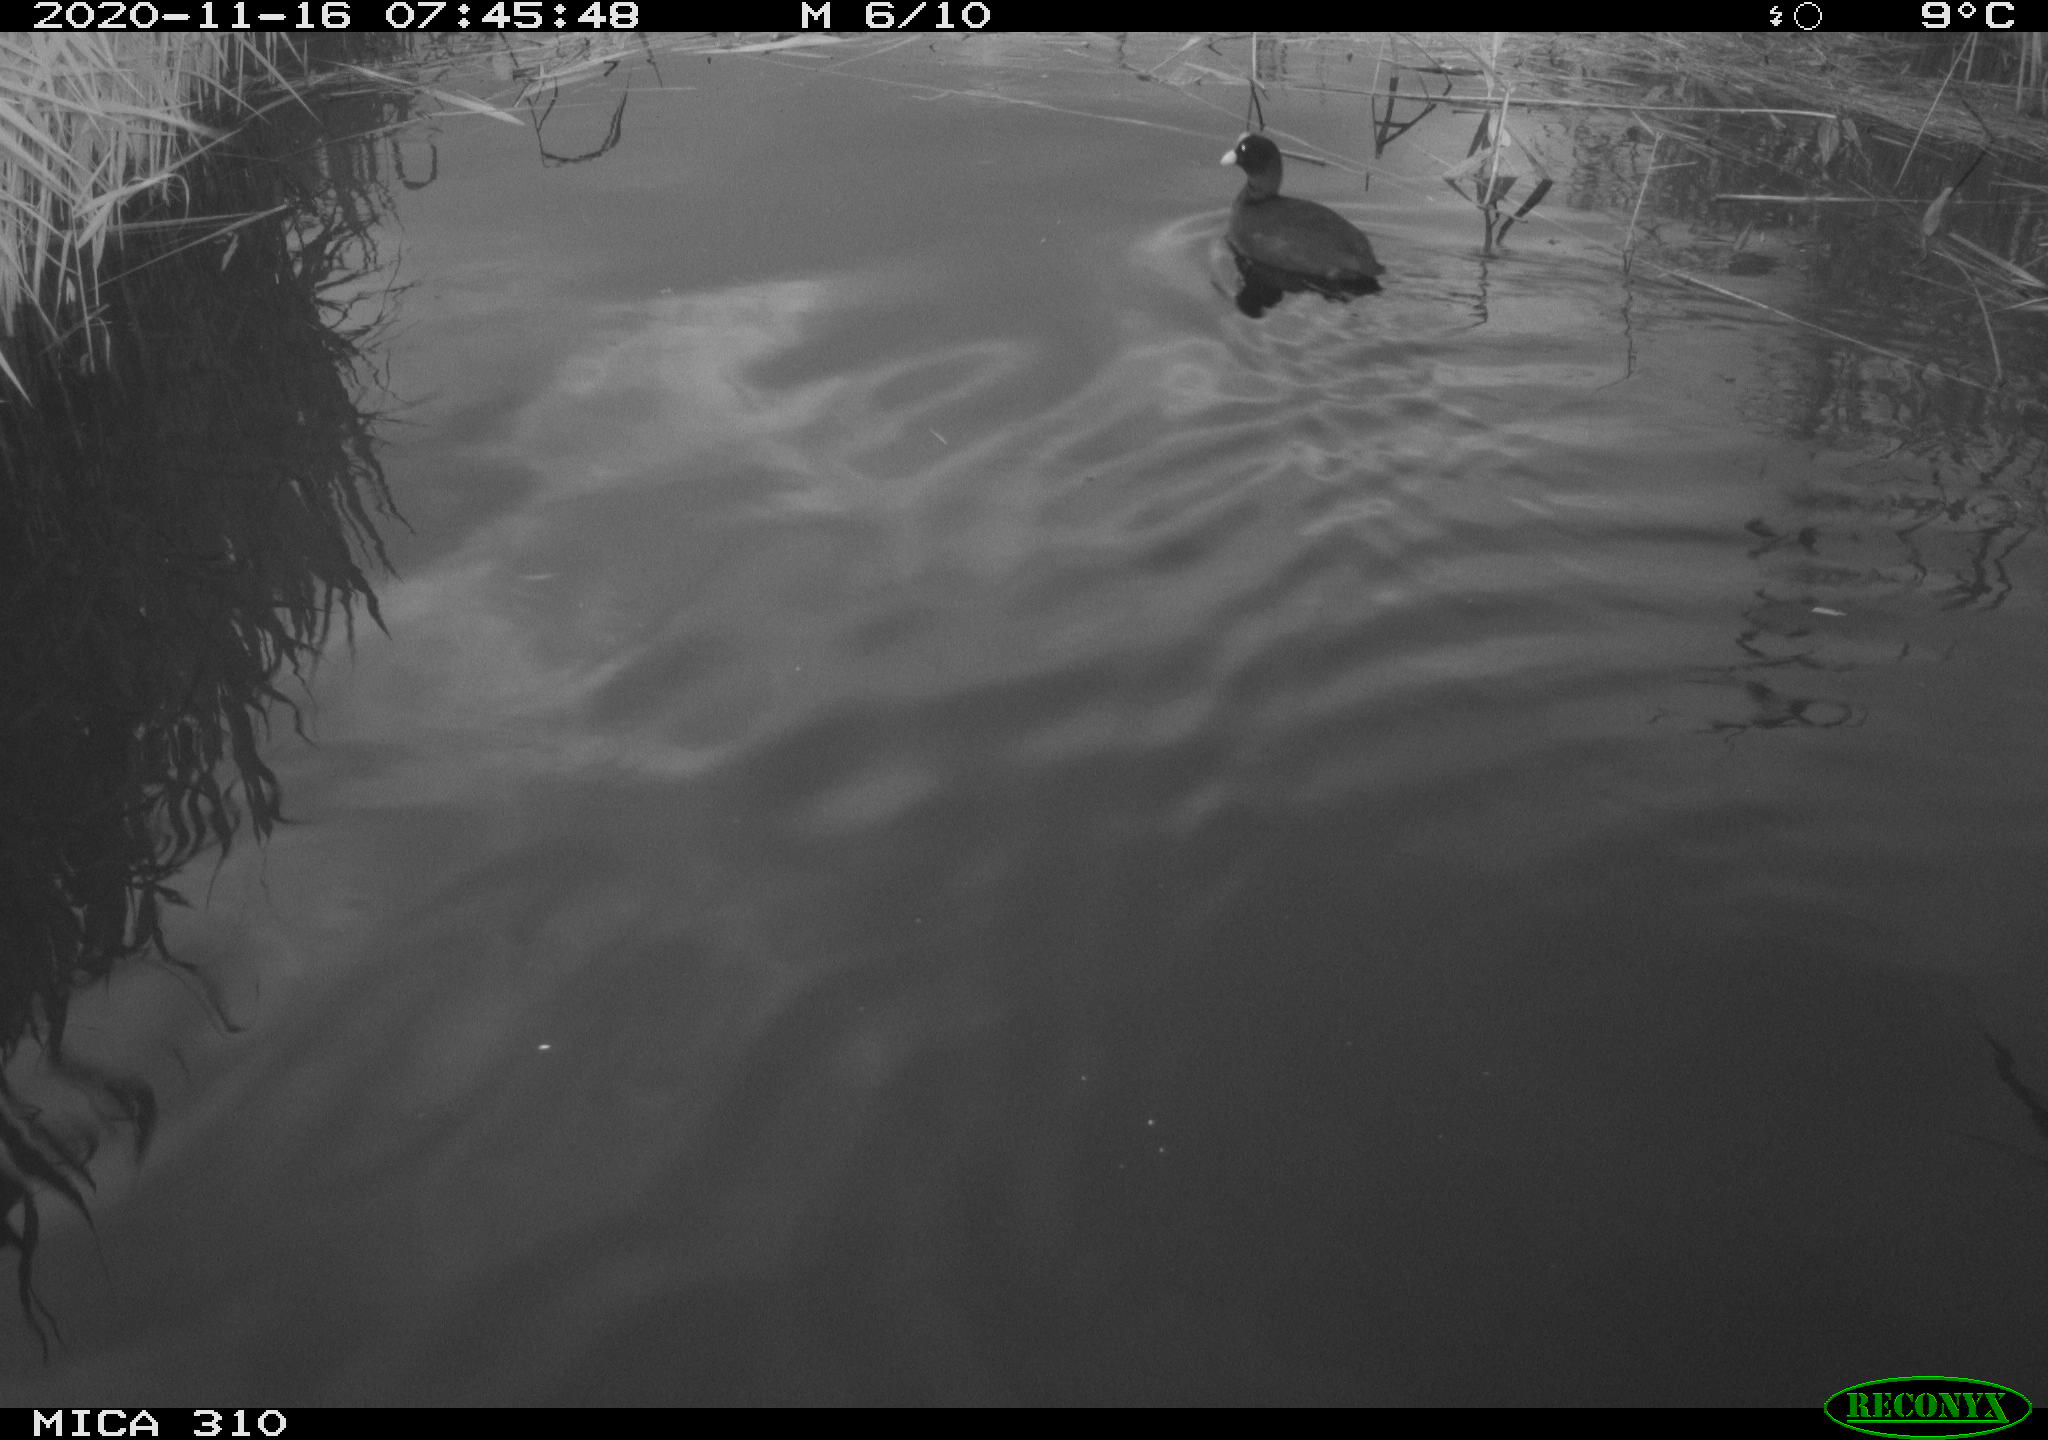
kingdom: Animalia
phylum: Chordata
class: Aves
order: Gruiformes
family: Rallidae
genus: Fulica
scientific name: Fulica atra
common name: Eurasian coot
